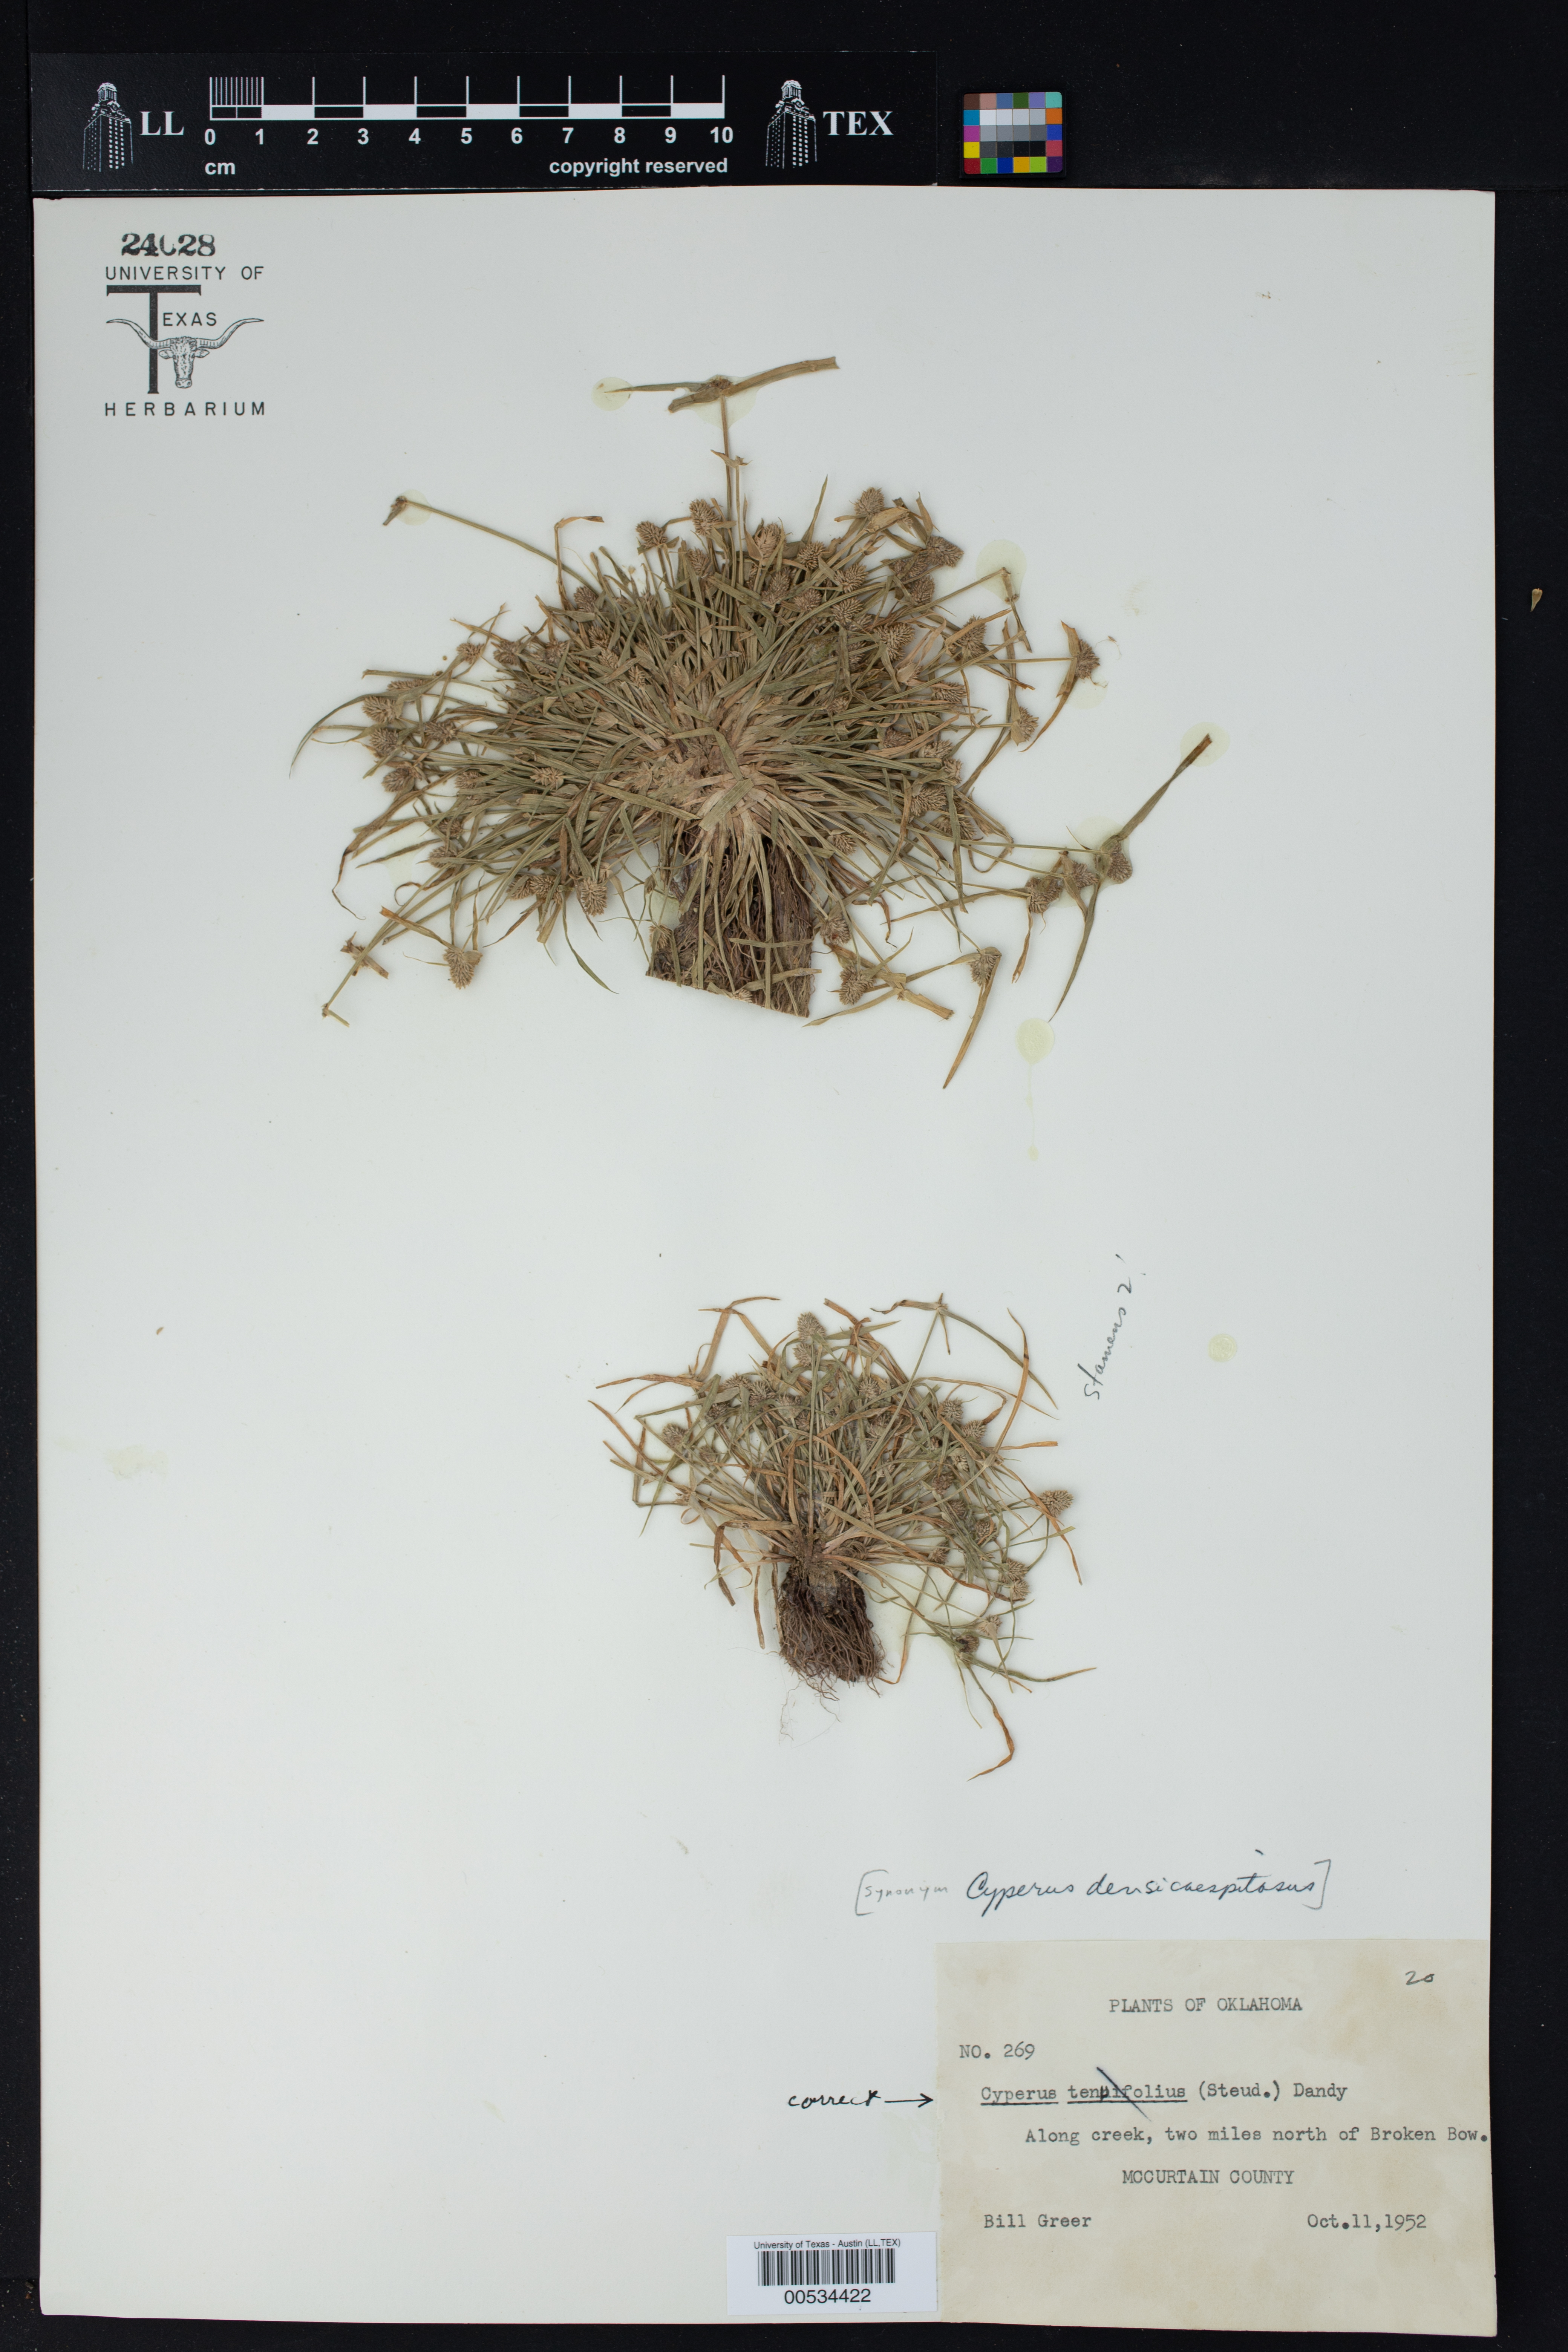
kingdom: Plantae
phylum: Tracheophyta
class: Liliopsida
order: Poales
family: Cyperaceae
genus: Cyperus
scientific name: Cyperus tenuifolius
